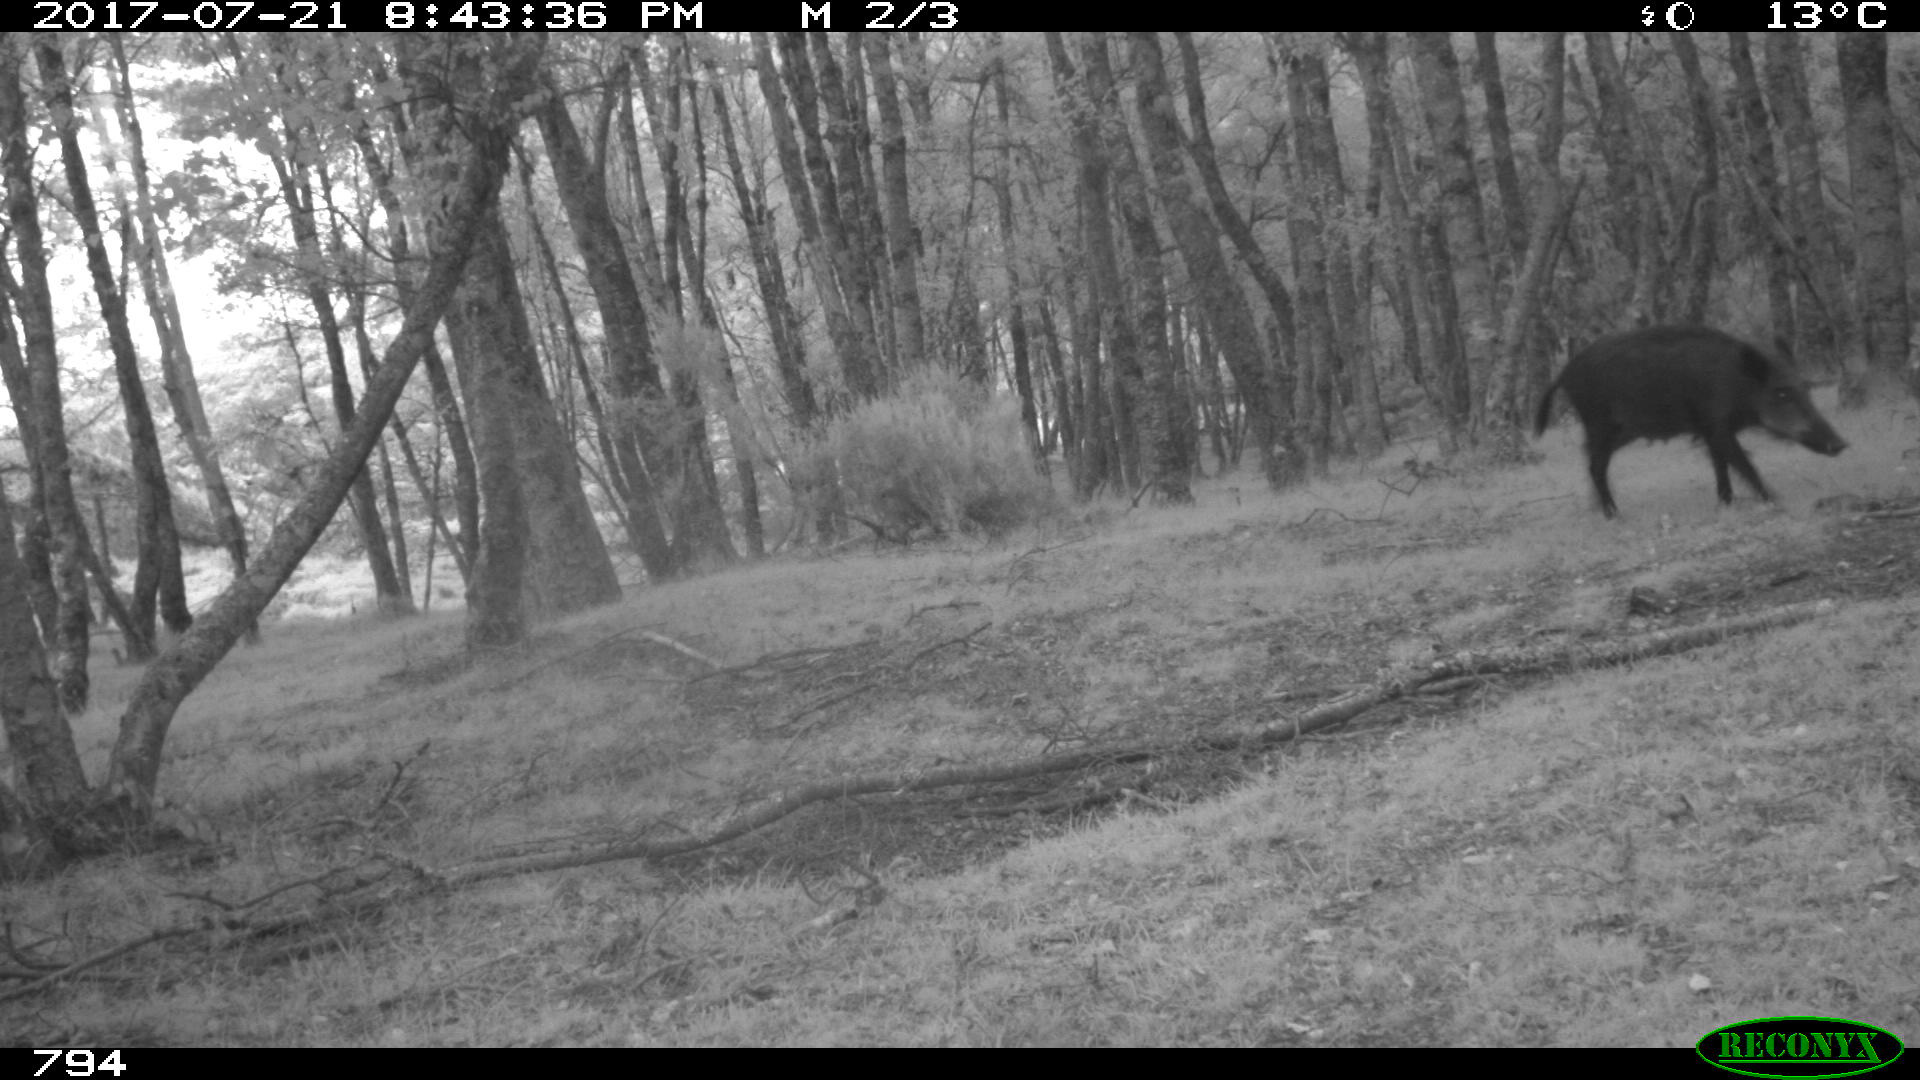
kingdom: Animalia
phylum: Chordata
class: Mammalia
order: Artiodactyla
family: Suidae
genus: Sus
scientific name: Sus scrofa
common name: Wild boar
